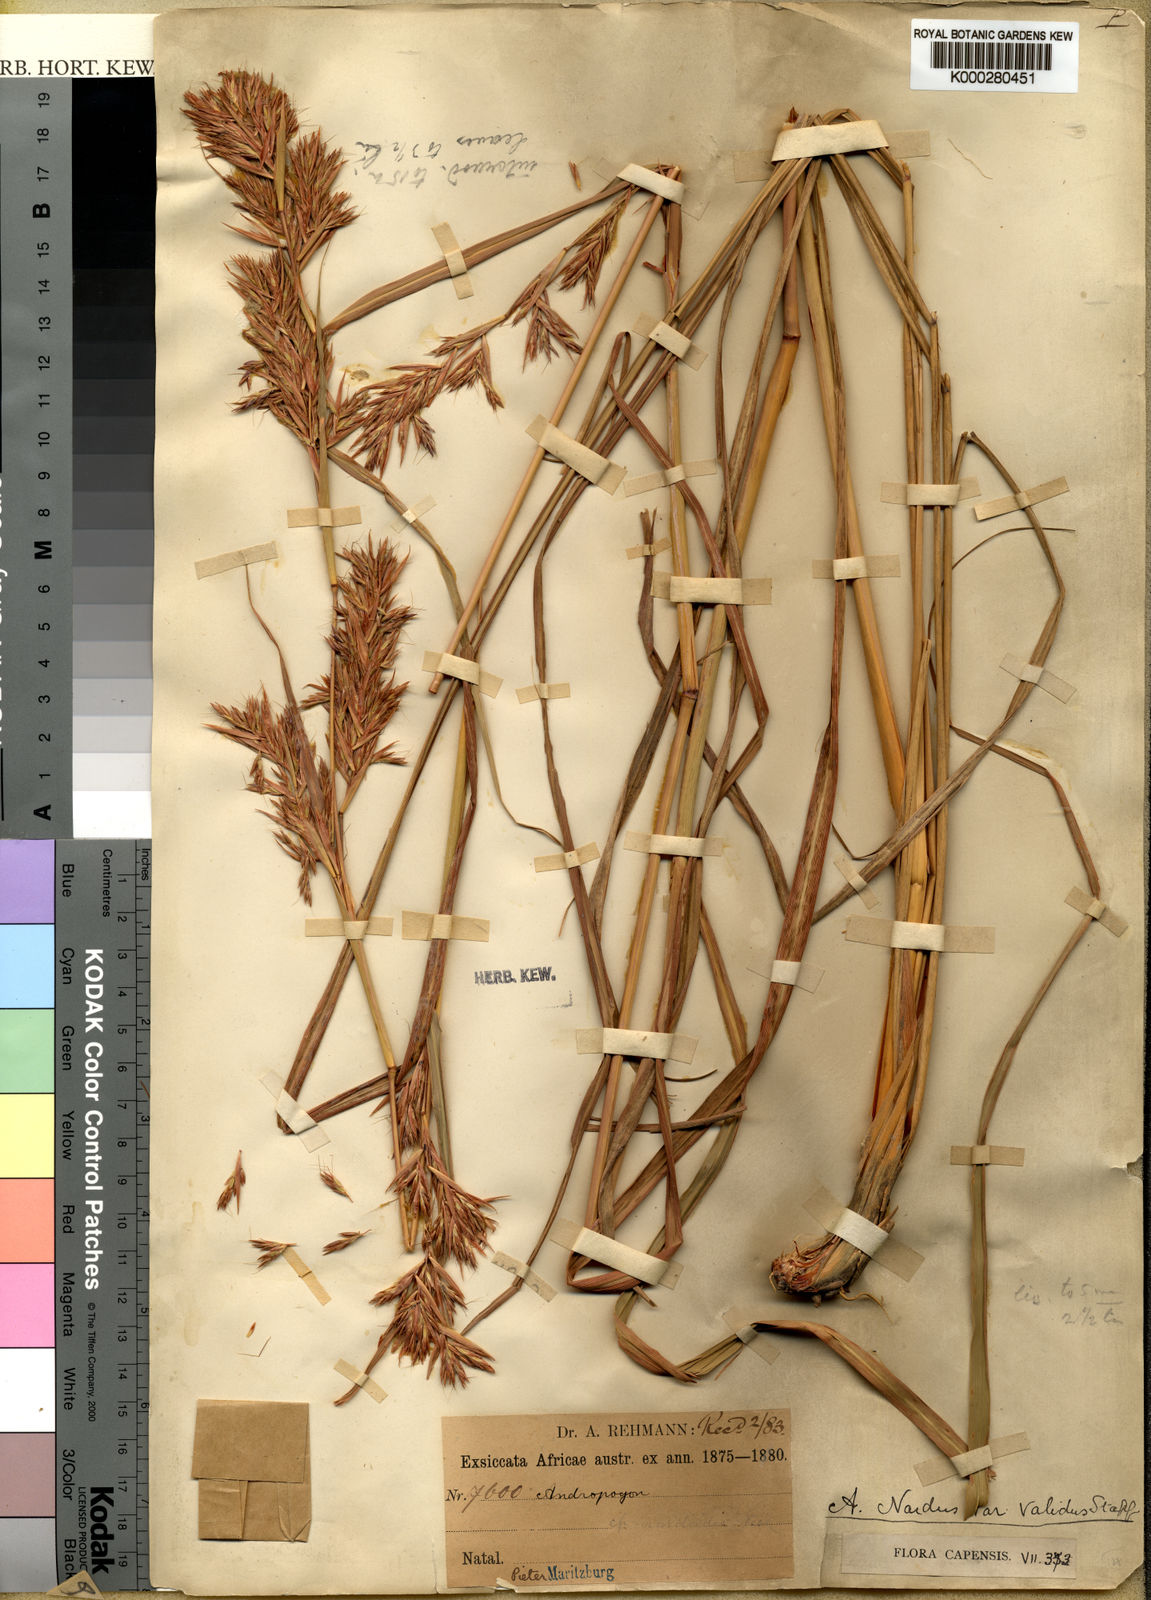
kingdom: Plantae
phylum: Tracheophyta
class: Liliopsida
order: Poales
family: Poaceae
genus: Cymbopogon
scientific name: Cymbopogon nardus
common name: Giant turpentine grass
